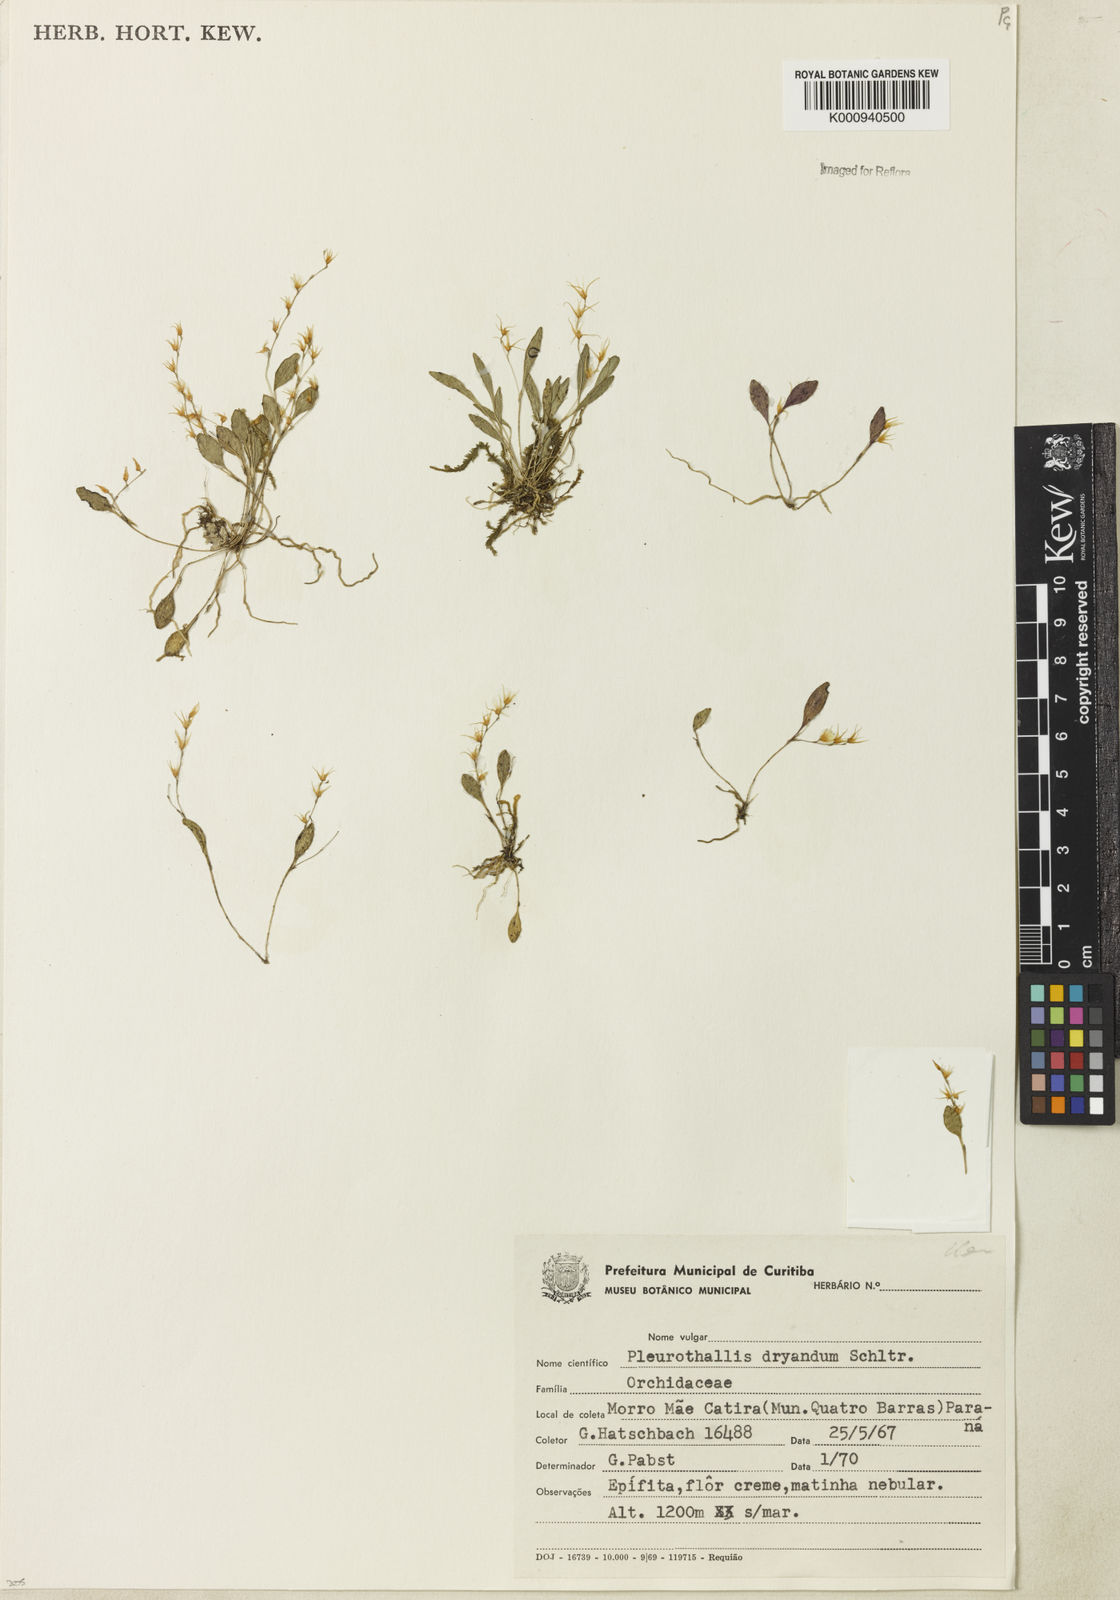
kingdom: Plantae
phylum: Tracheophyta
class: Liliopsida
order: Asparagales
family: Orchidaceae
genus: Anathallis
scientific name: Anathallis dryadum
